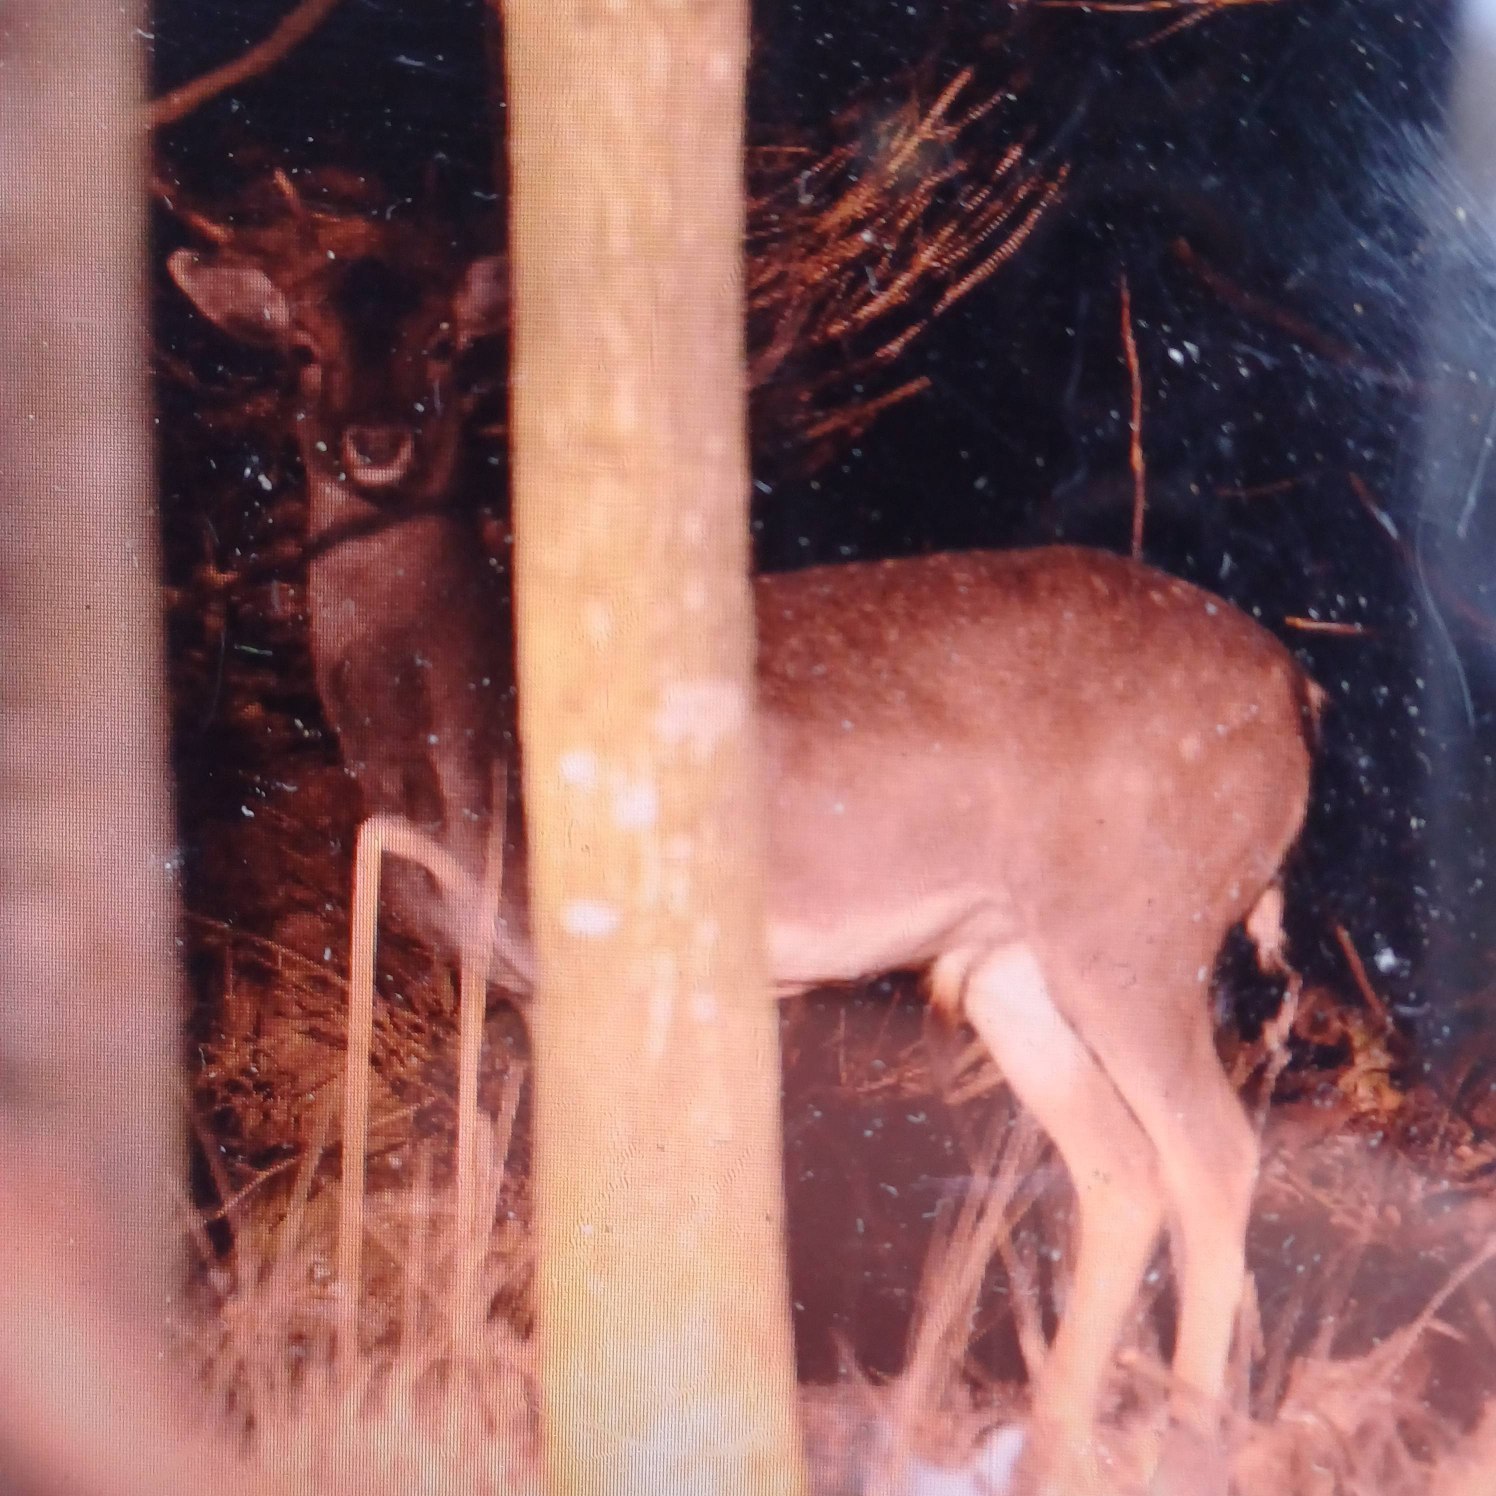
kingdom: Animalia
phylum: Chordata
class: Mammalia
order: Artiodactyla
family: Cervidae
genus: Dama
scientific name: Dama dama
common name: Dådyr
